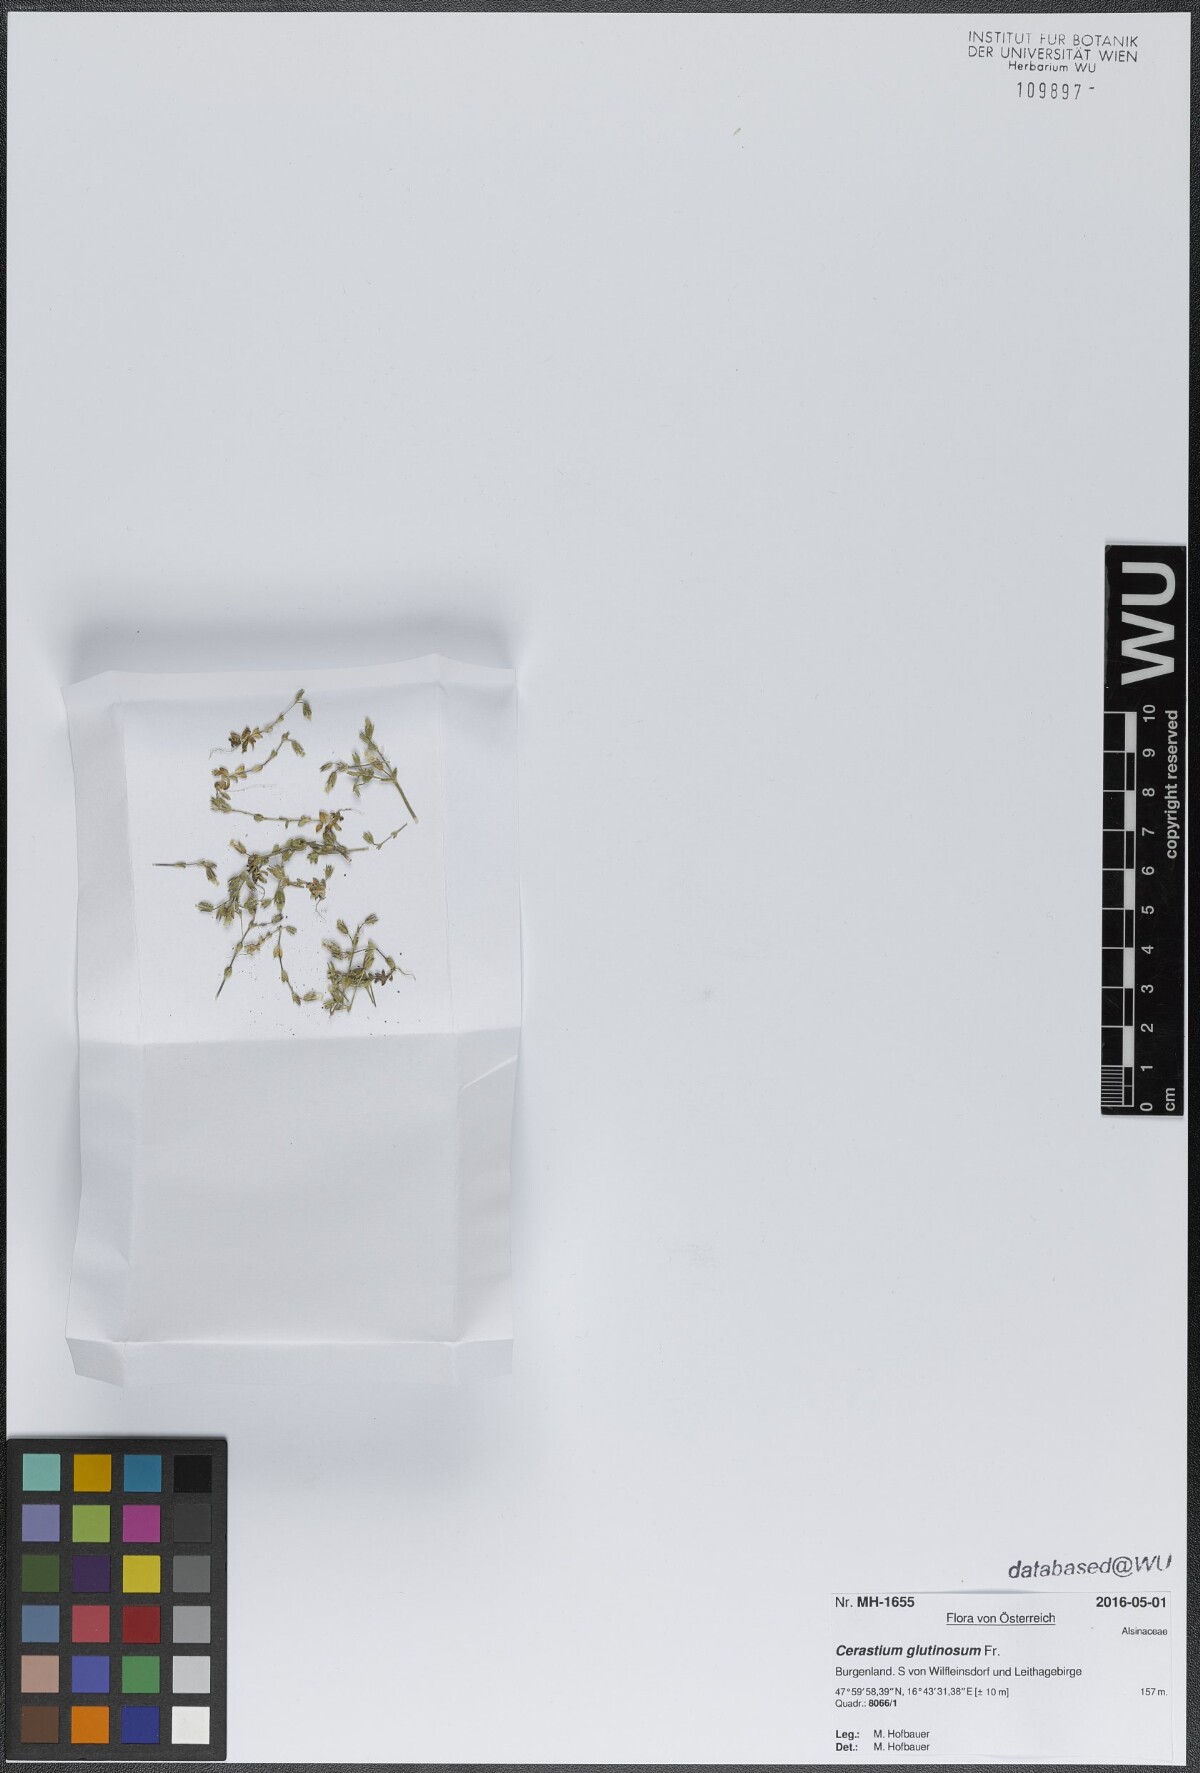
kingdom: Plantae
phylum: Tracheophyta
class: Magnoliopsida
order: Caryophyllales
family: Caryophyllaceae
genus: Cerastium
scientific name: Cerastium glutinosum
